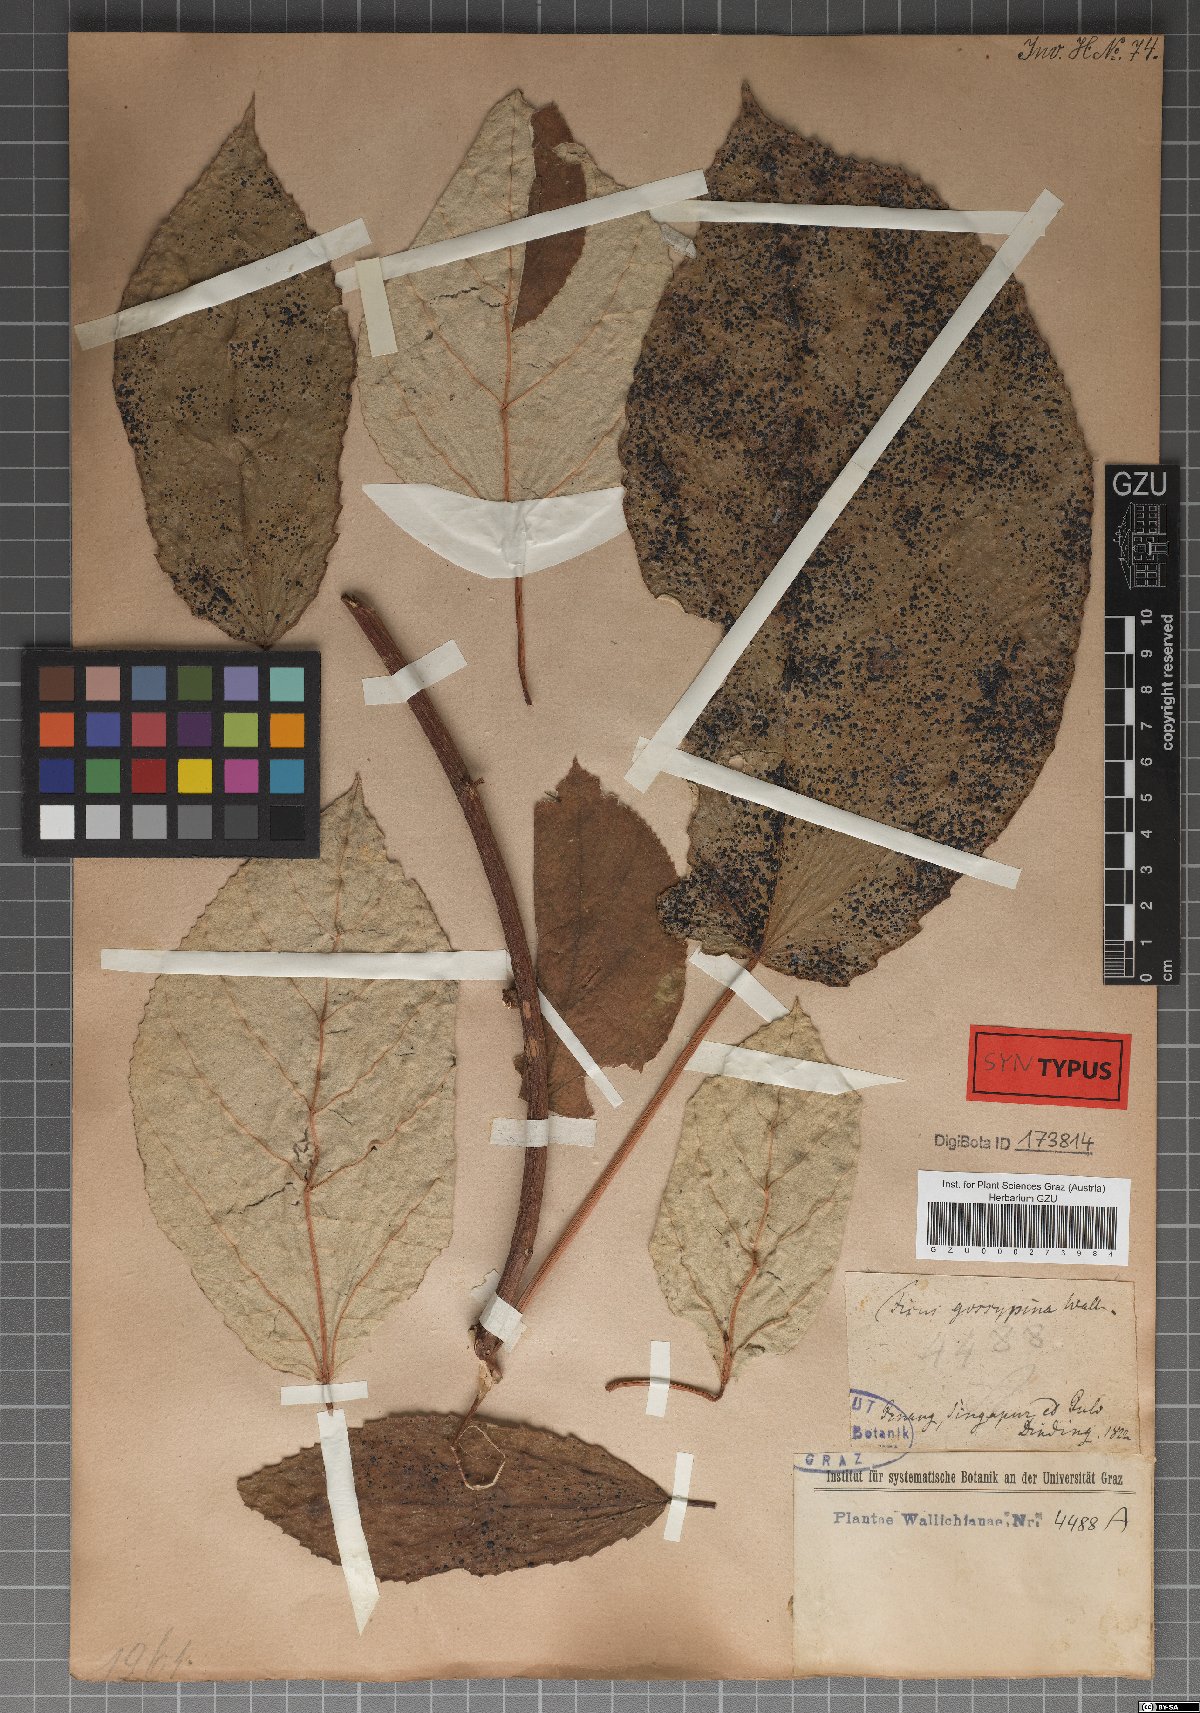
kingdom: Plantae
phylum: Tracheophyta
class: Magnoliopsida
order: Rosales
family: Moraceae
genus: Ficus
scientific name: Ficus grossularioides
